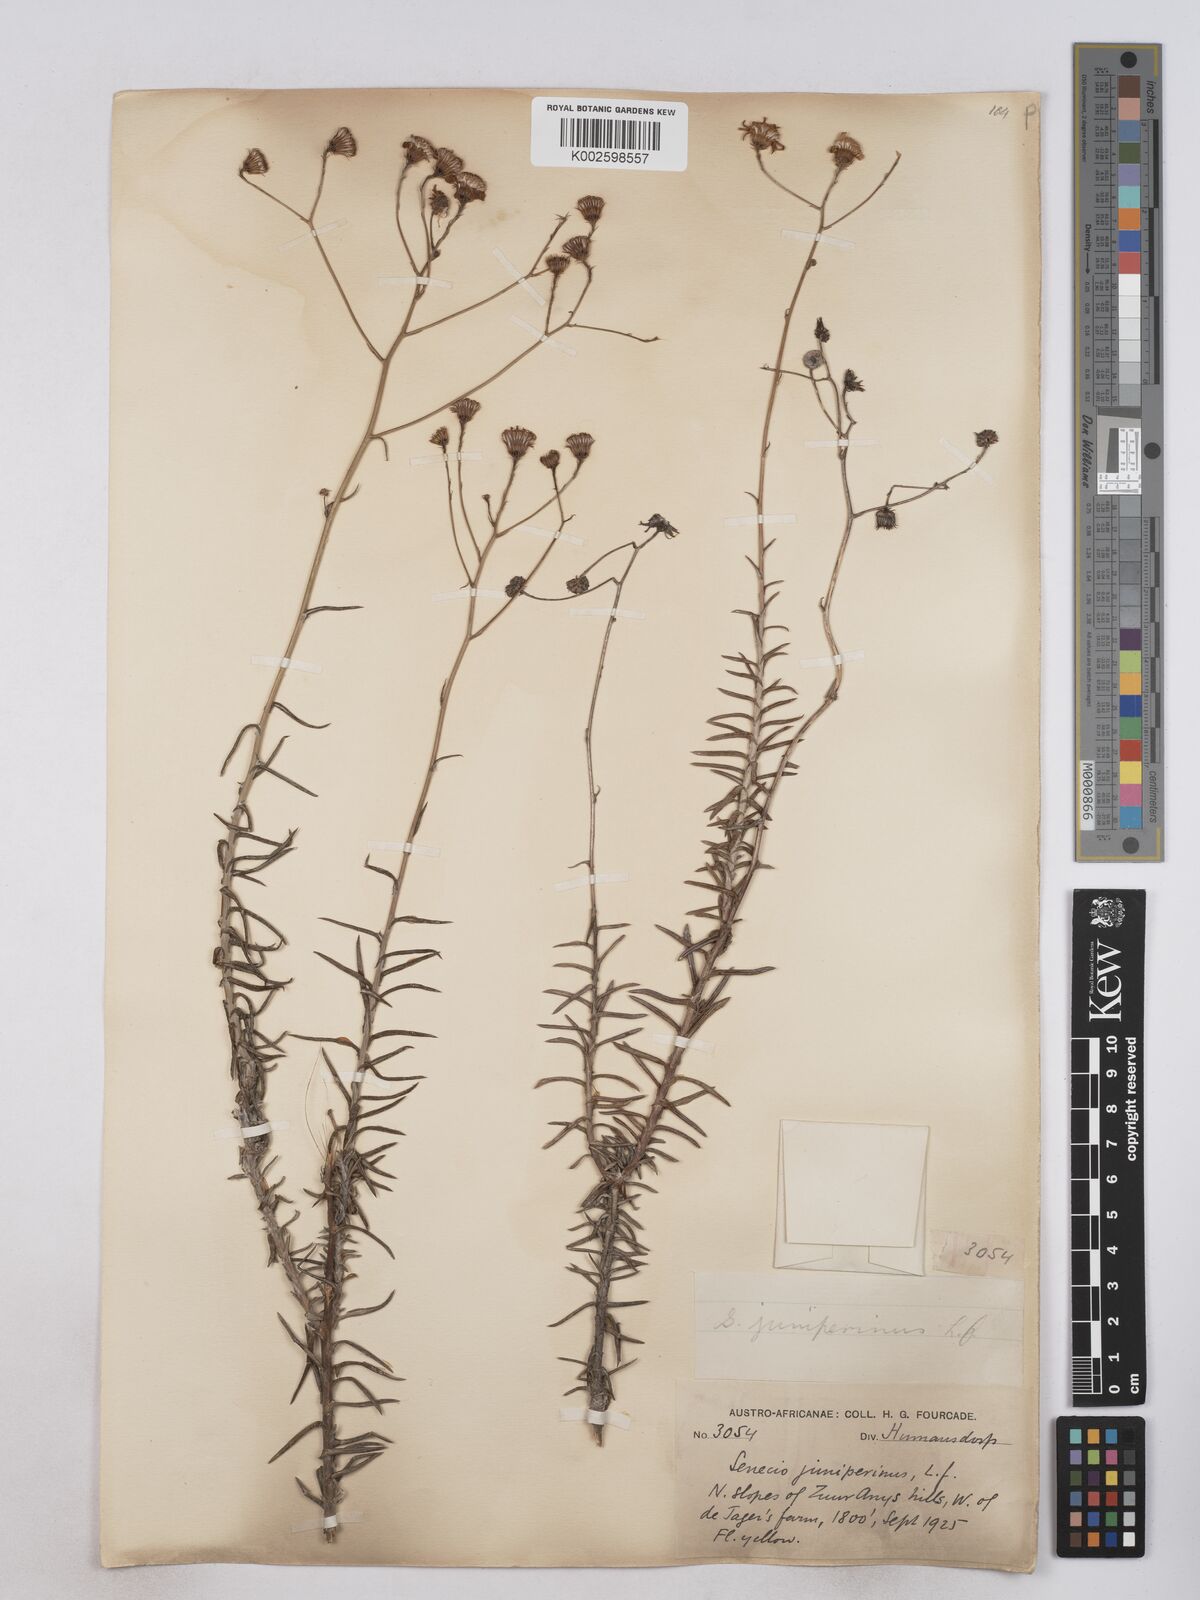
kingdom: Plantae
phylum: Tracheophyta
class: Magnoliopsida
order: Asterales
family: Asteraceae
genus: Senecio
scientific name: Senecio juniperinus
